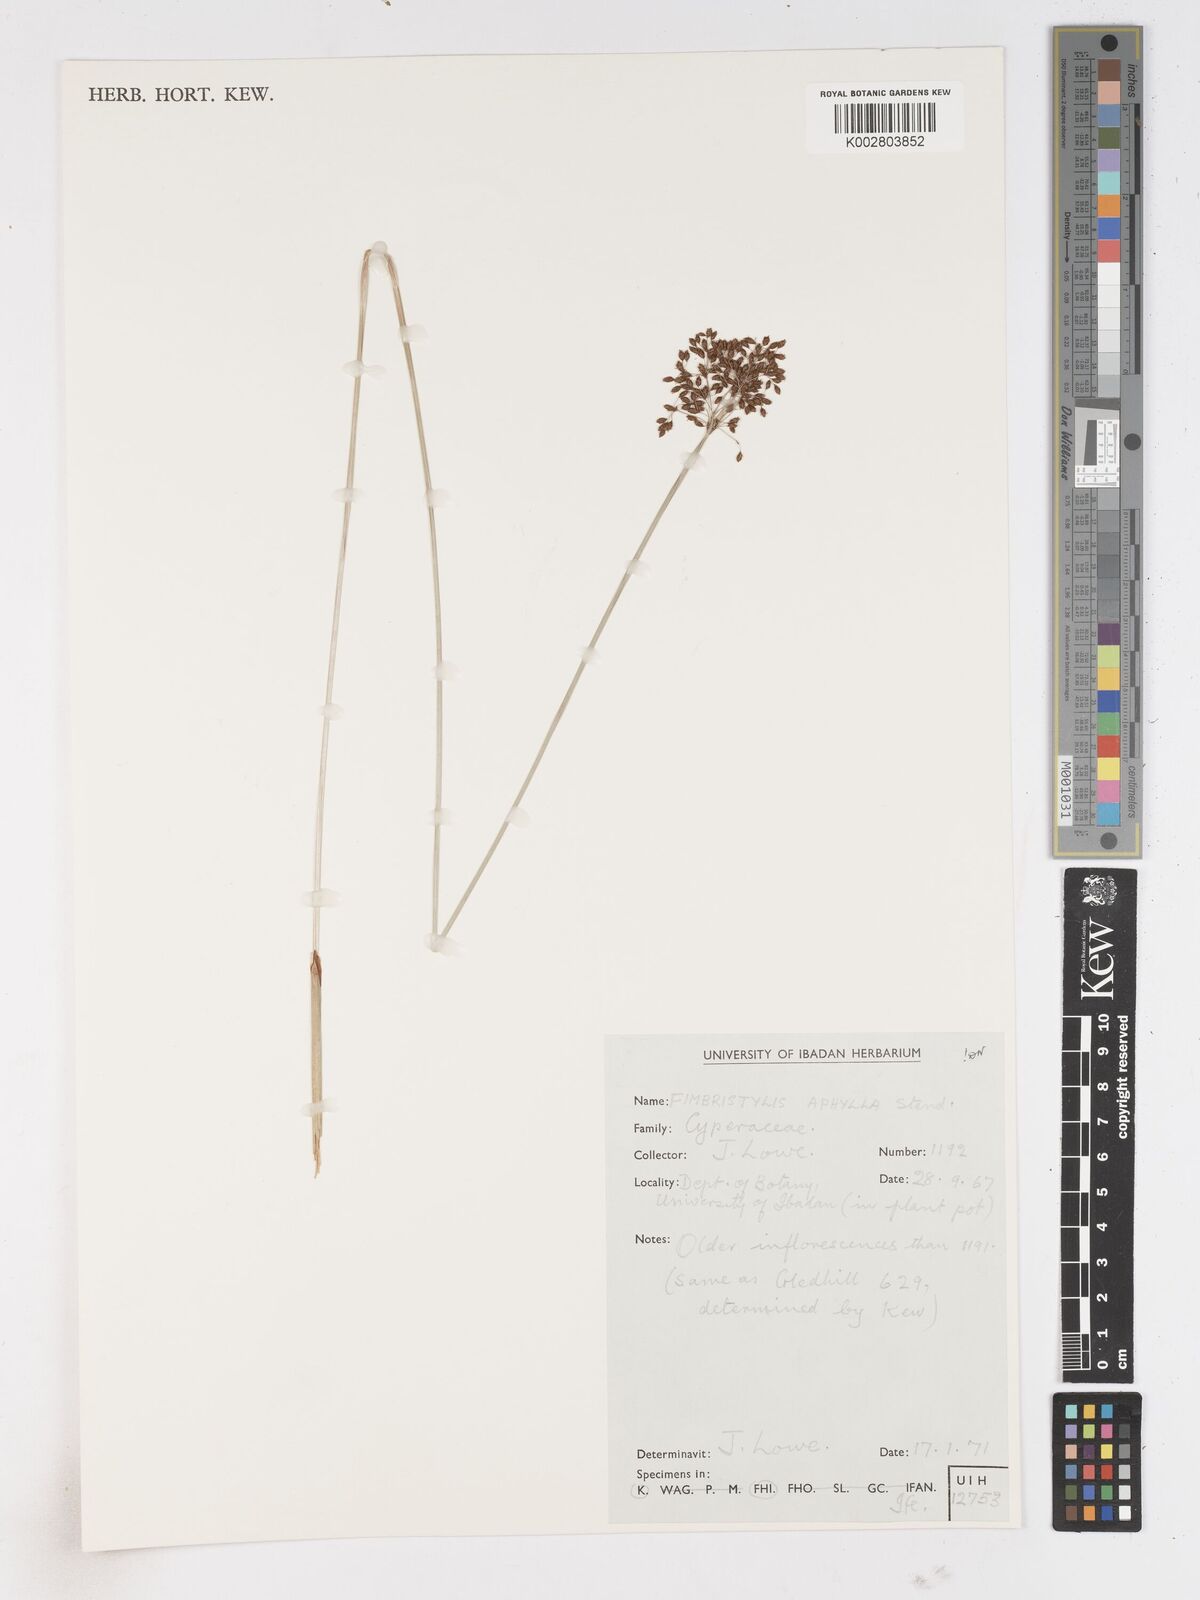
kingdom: Plantae
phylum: Tracheophyta
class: Liliopsida
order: Poales
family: Cyperaceae
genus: Fimbristylis
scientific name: Fimbristylis aphylla
